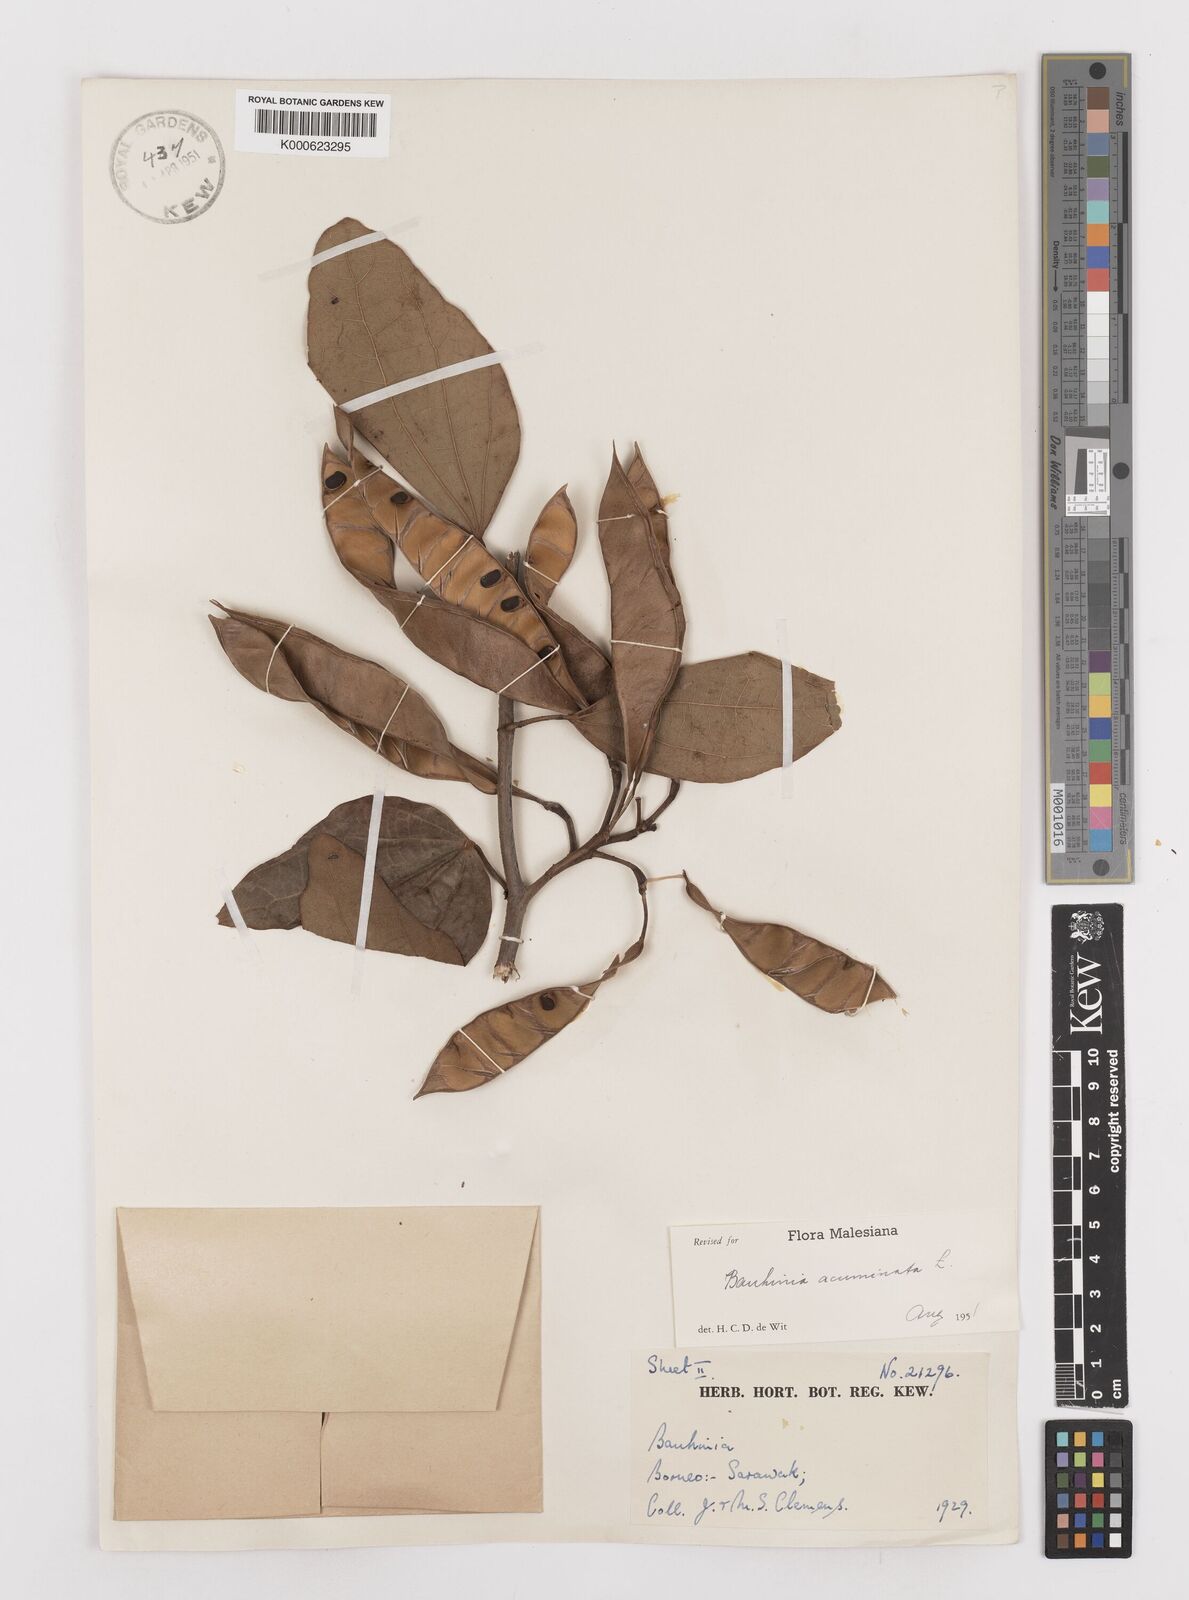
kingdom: Plantae
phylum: Tracheophyta
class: Magnoliopsida
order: Fabales
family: Fabaceae
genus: Bauhinia
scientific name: Bauhinia acuminata
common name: Dwarf white bauhinia
